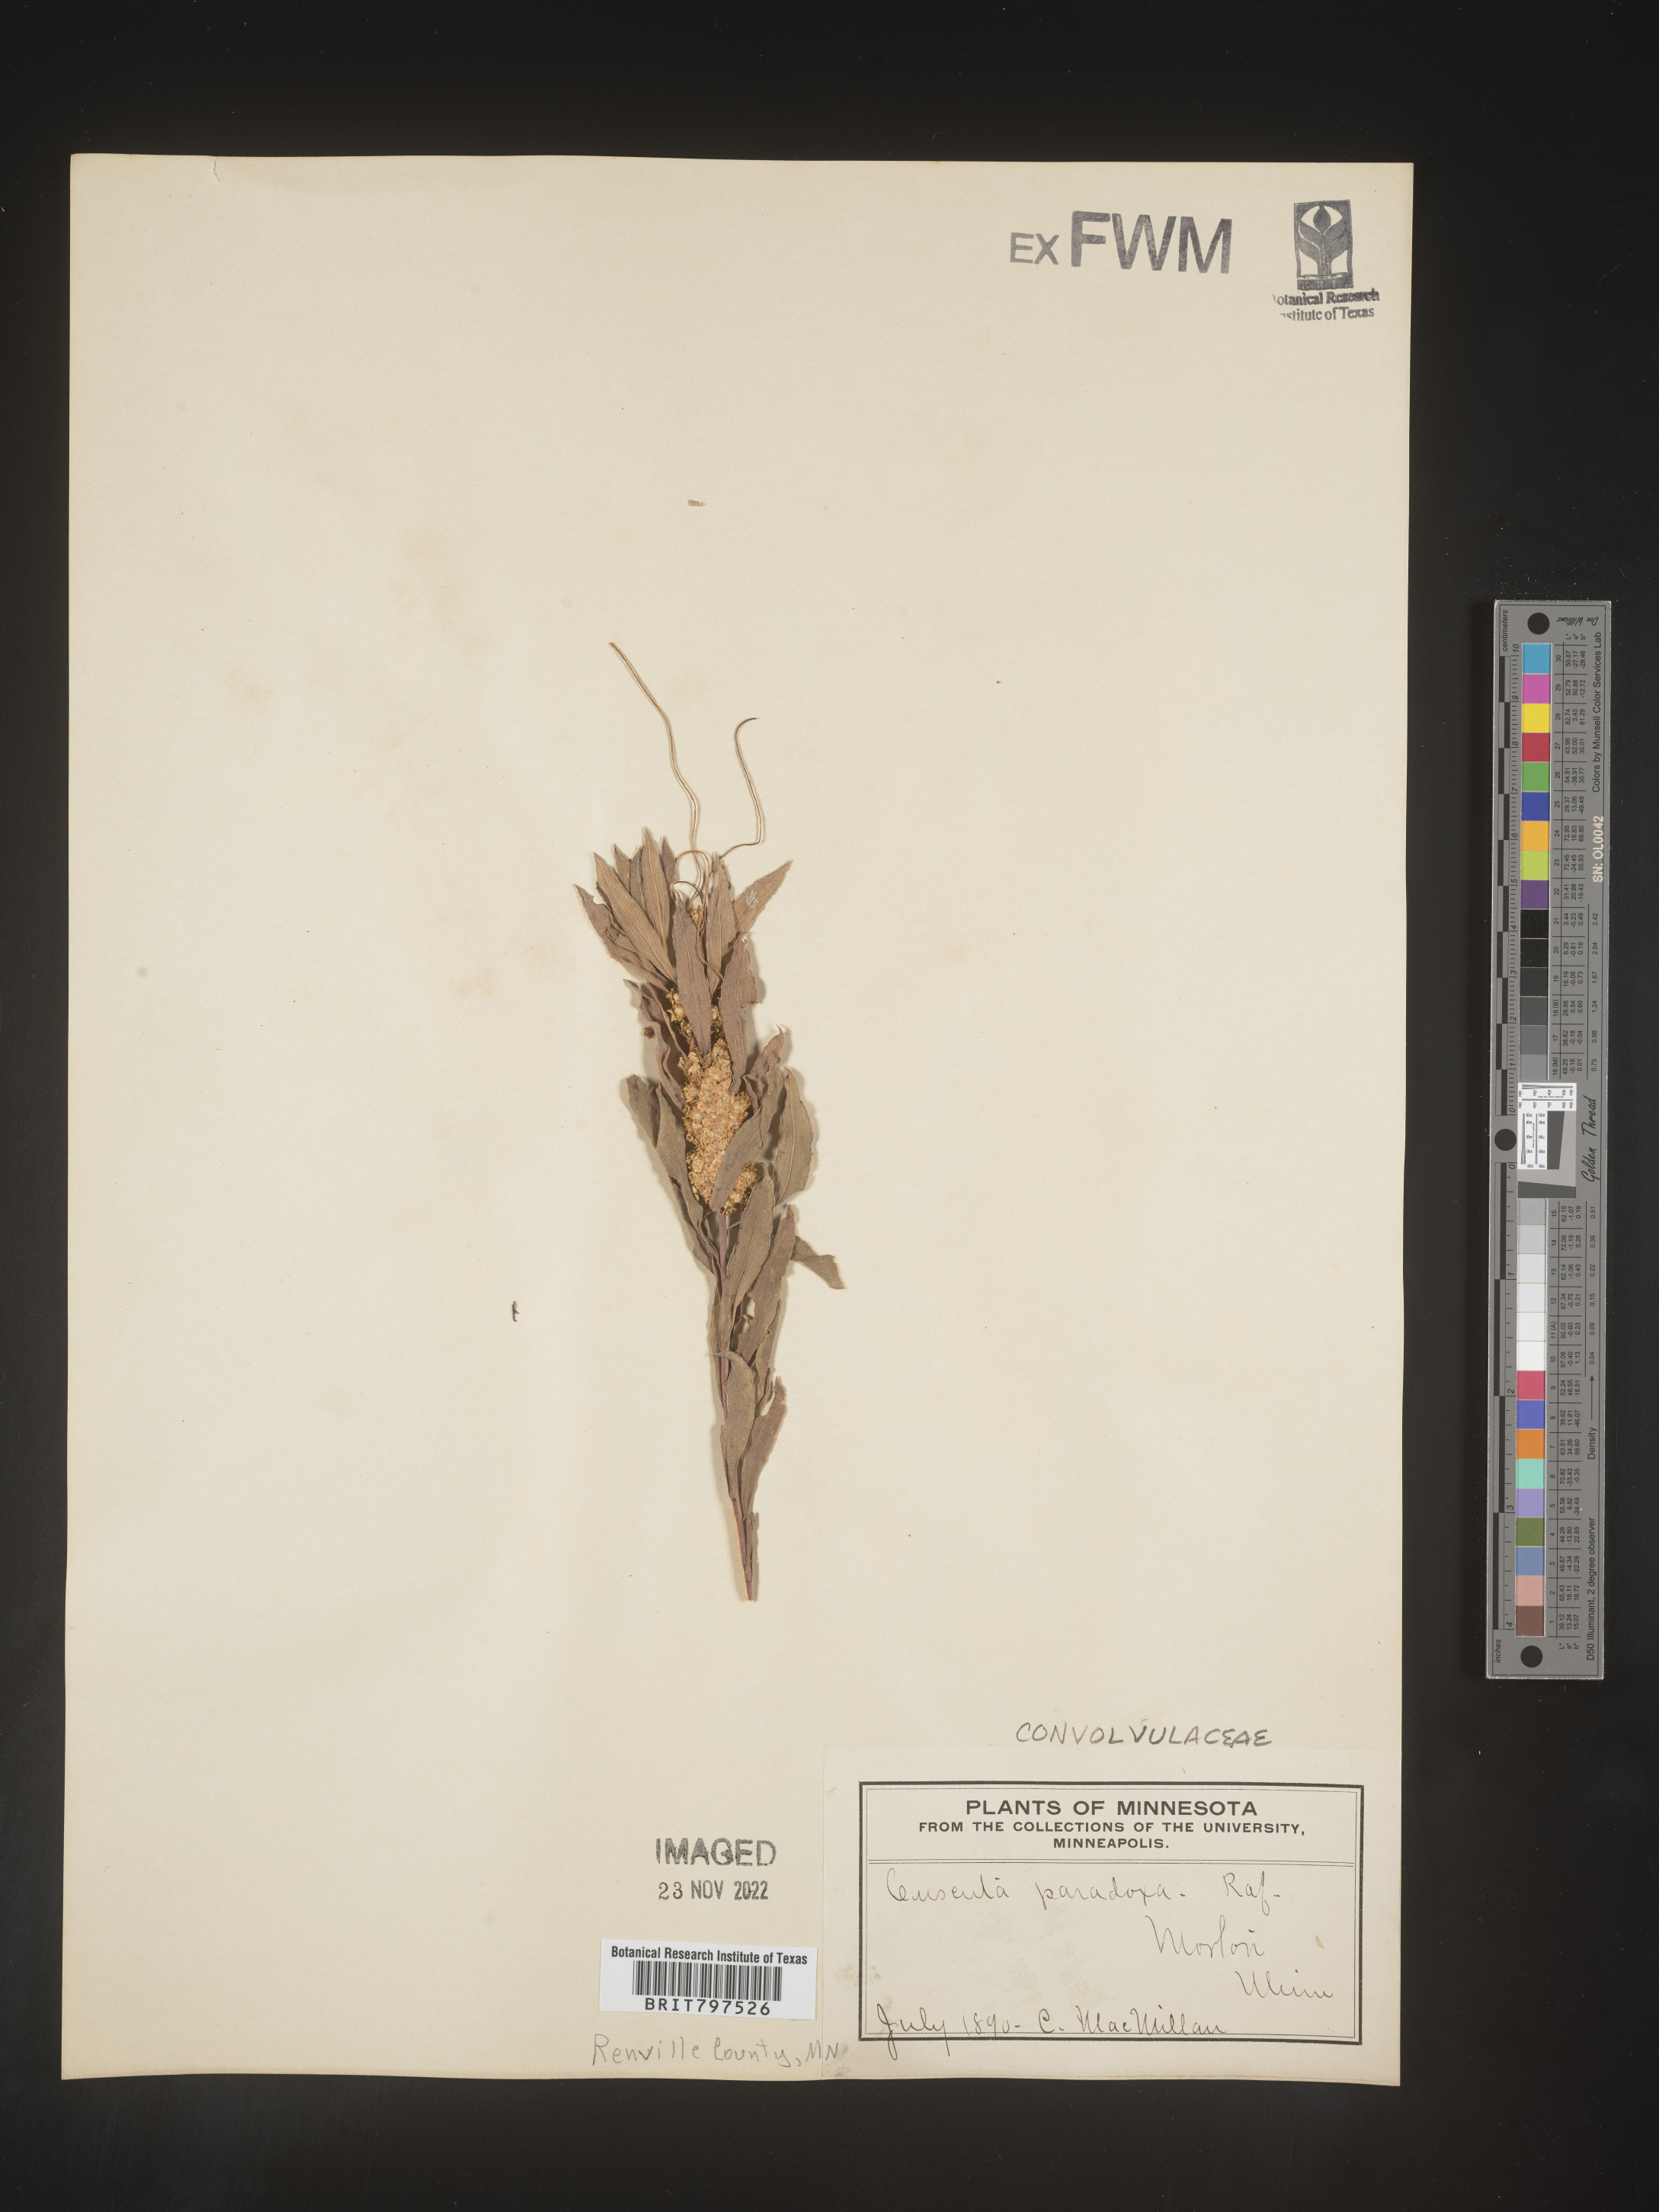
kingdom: Plantae
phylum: Tracheophyta
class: Magnoliopsida
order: Solanales
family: Convolvulaceae
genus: Cuscuta
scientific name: Cuscuta
